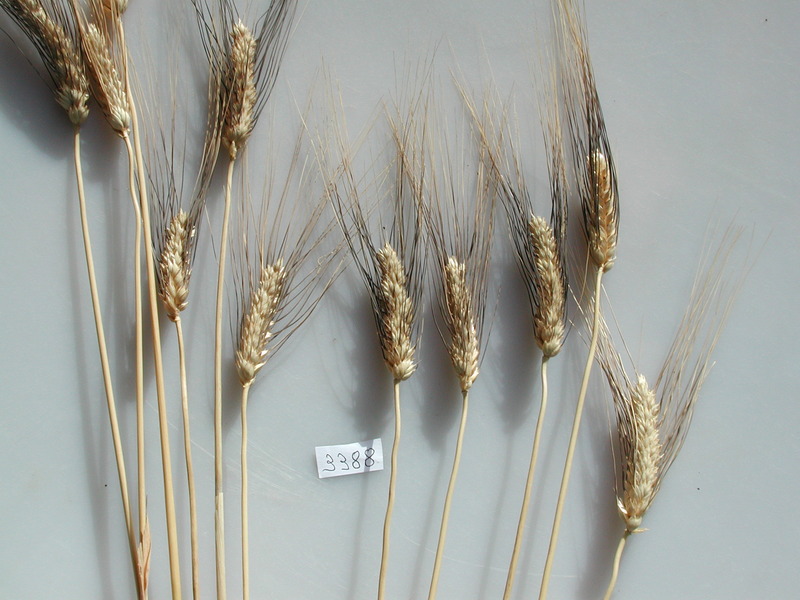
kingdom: Plantae
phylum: Tracheophyta
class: Liliopsida
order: Poales
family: Poaceae
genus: Triticum
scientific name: Triticum turgidum
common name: Wheat
